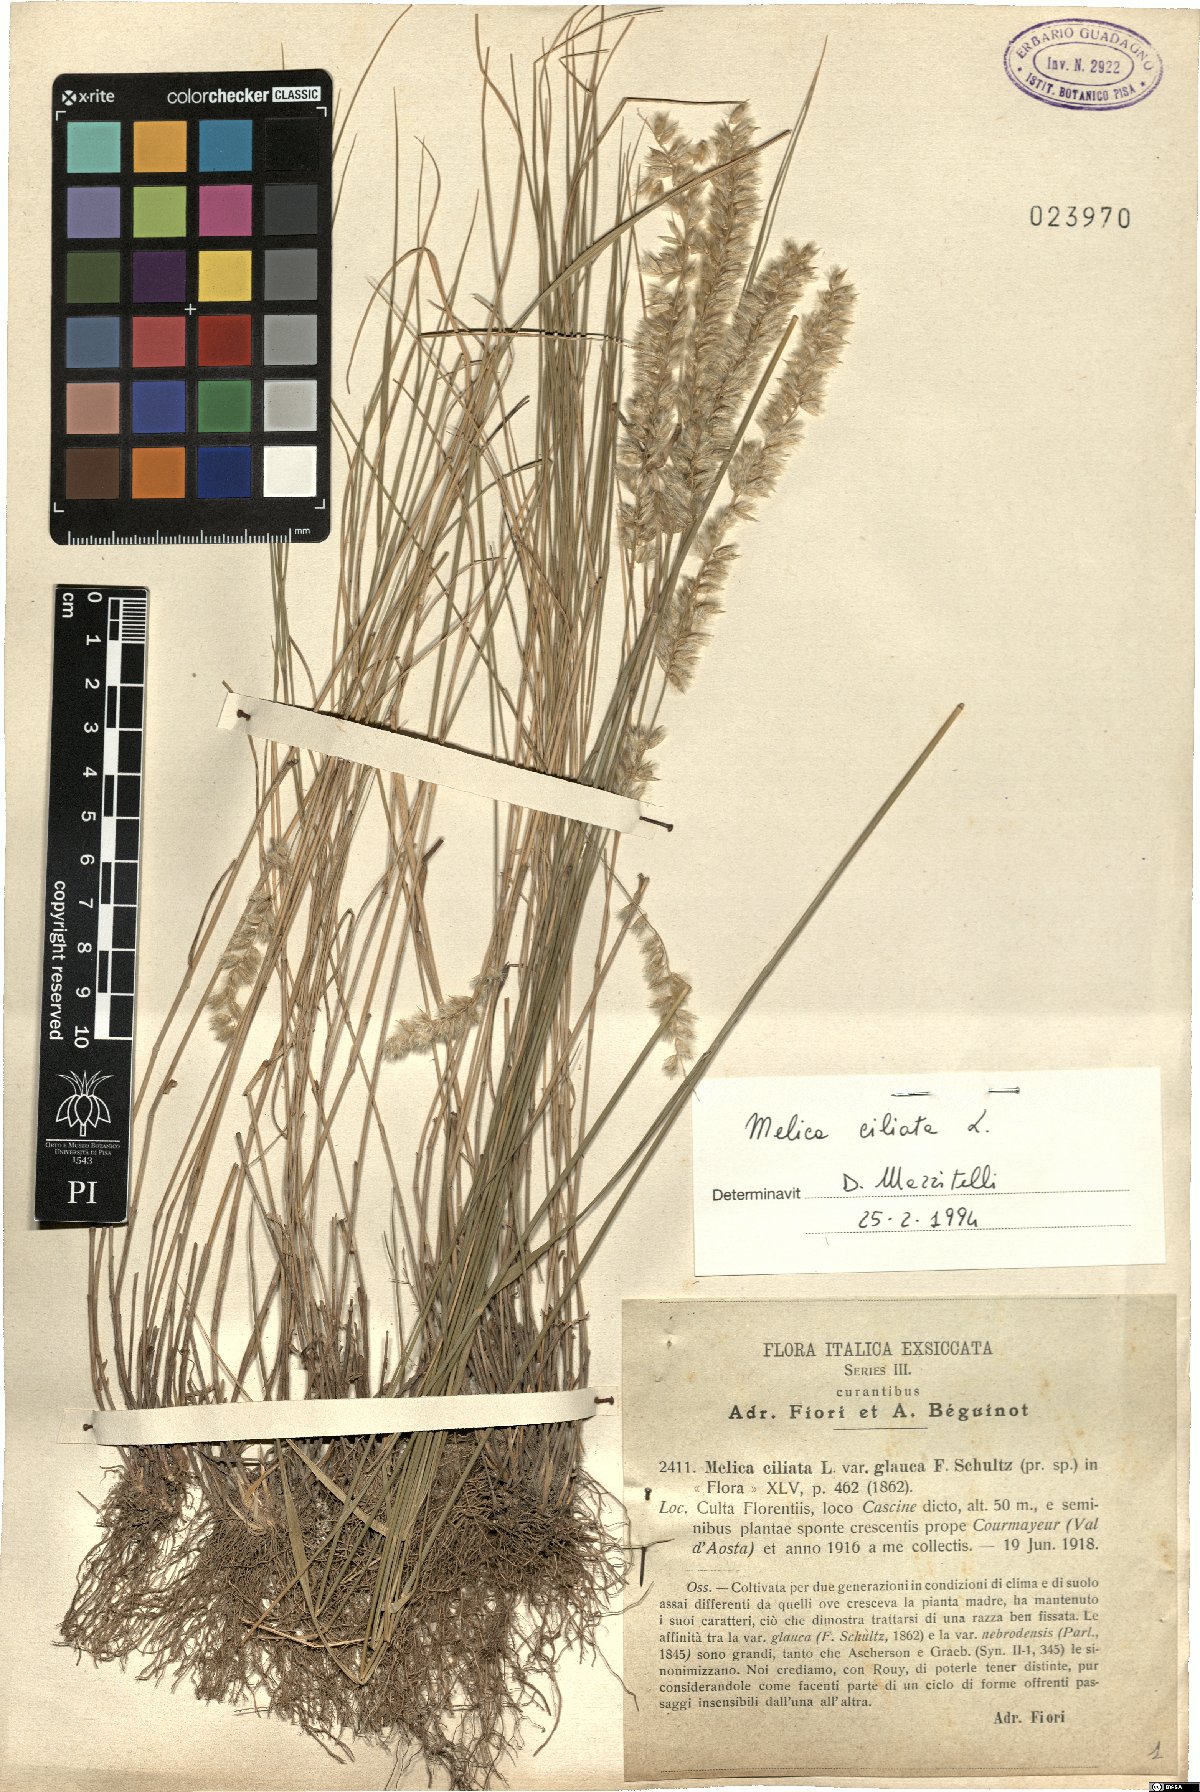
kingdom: Plantae
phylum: Tracheophyta
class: Liliopsida
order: Poales
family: Poaceae
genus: Melica
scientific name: Melica ciliata
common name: Hairy melicgrass
